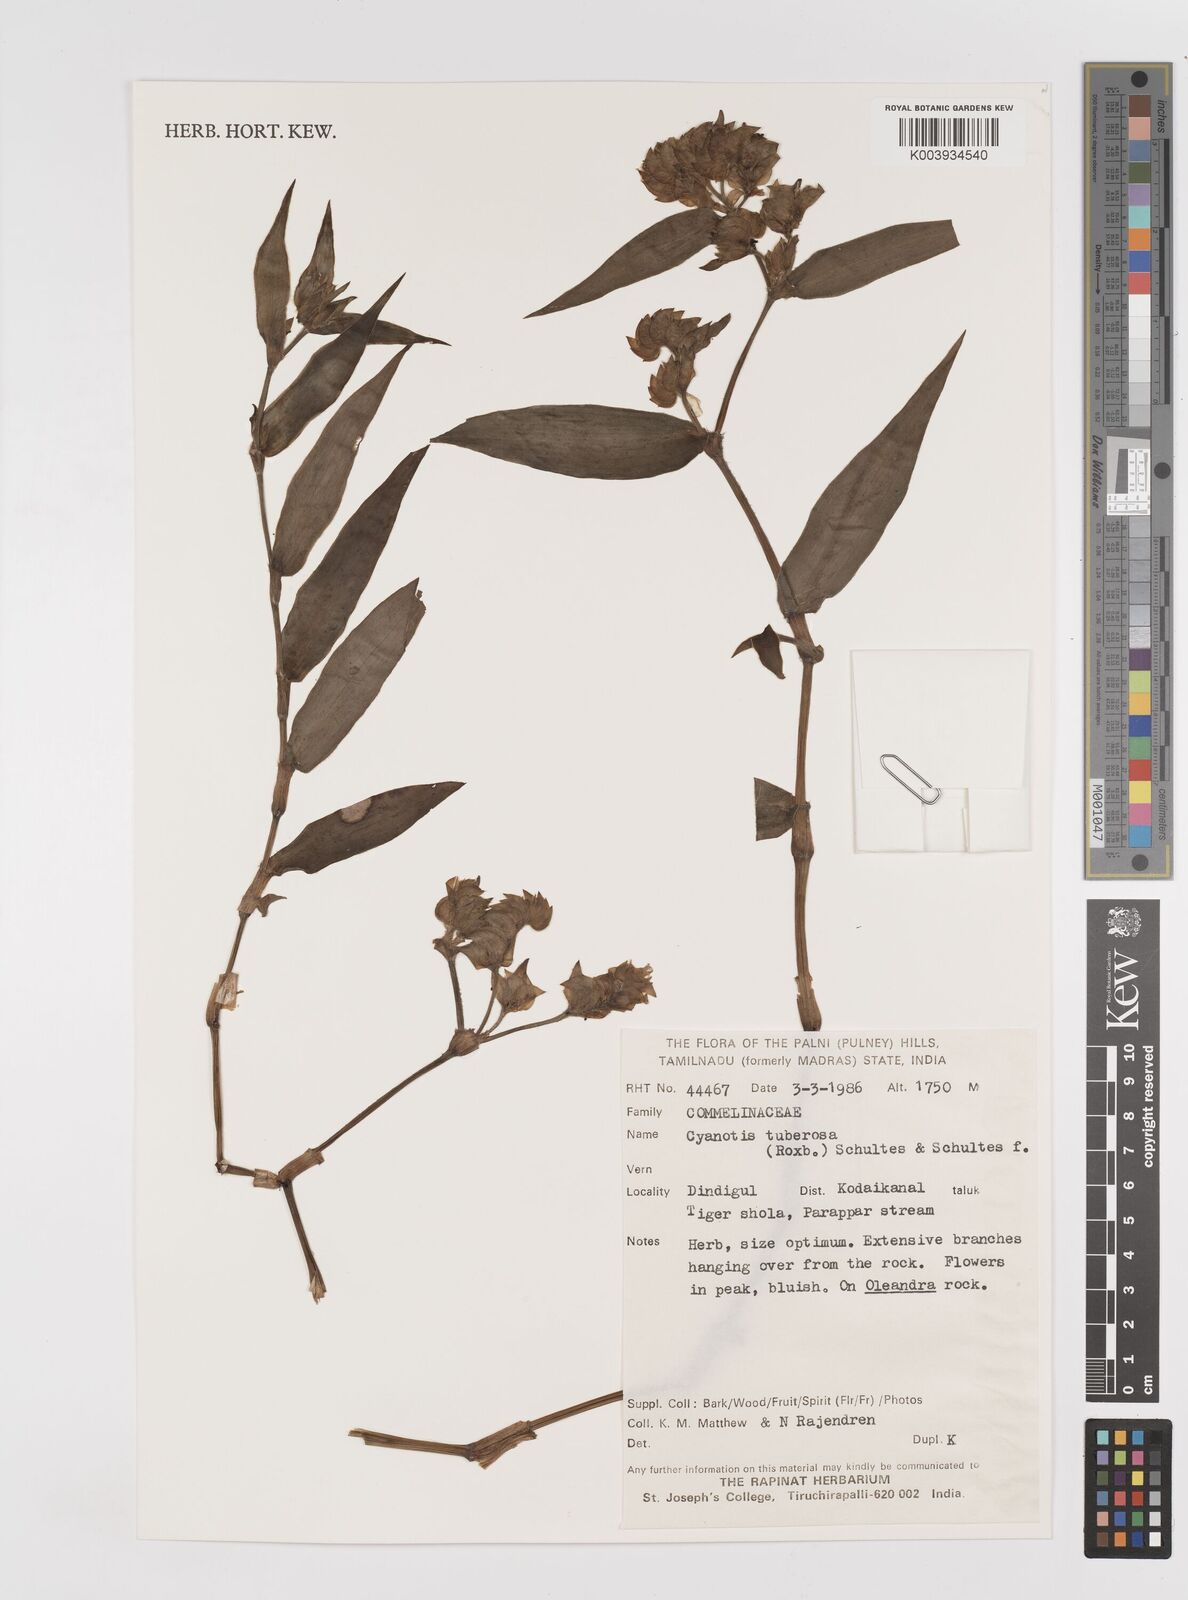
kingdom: Plantae
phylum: Tracheophyta
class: Liliopsida
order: Commelinales
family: Commelinaceae
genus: Cyanotis
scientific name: Cyanotis tuberosa
